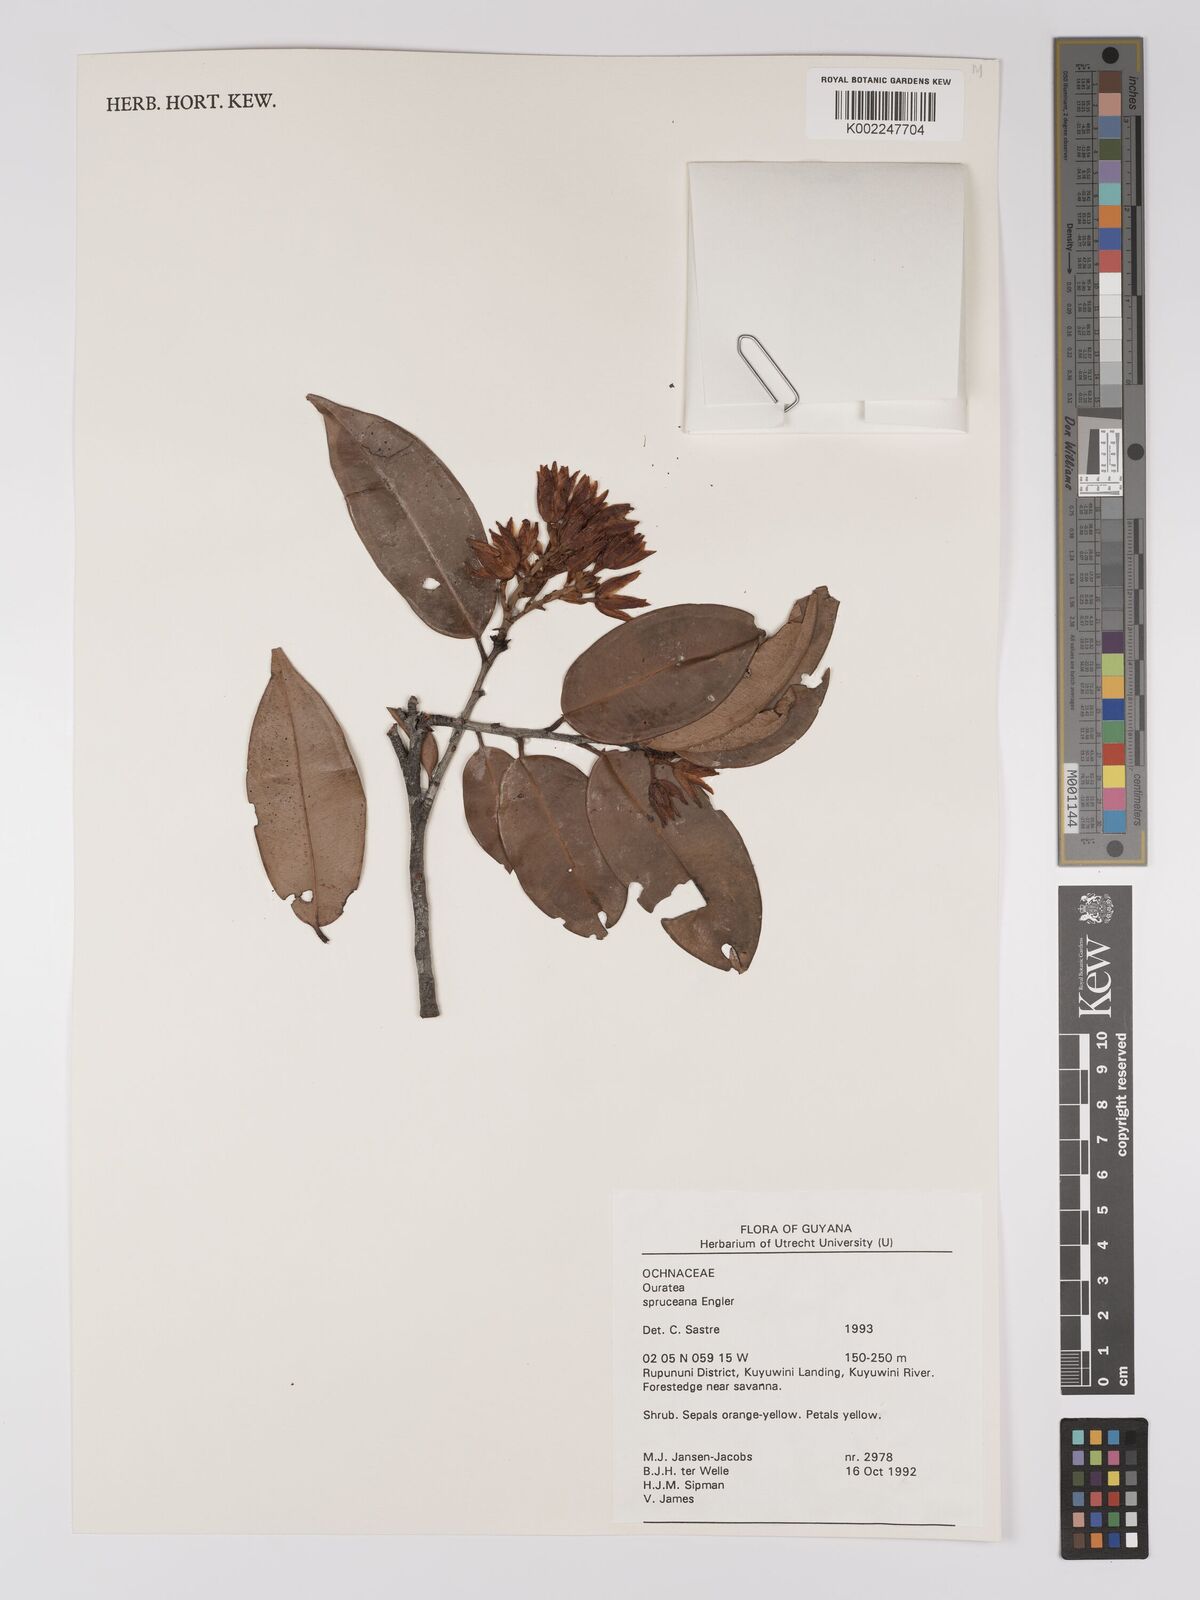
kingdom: Plantae
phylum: Tracheophyta
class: Magnoliopsida
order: Malpighiales
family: Ochnaceae
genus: Ouratea
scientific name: Ouratea spruceana
